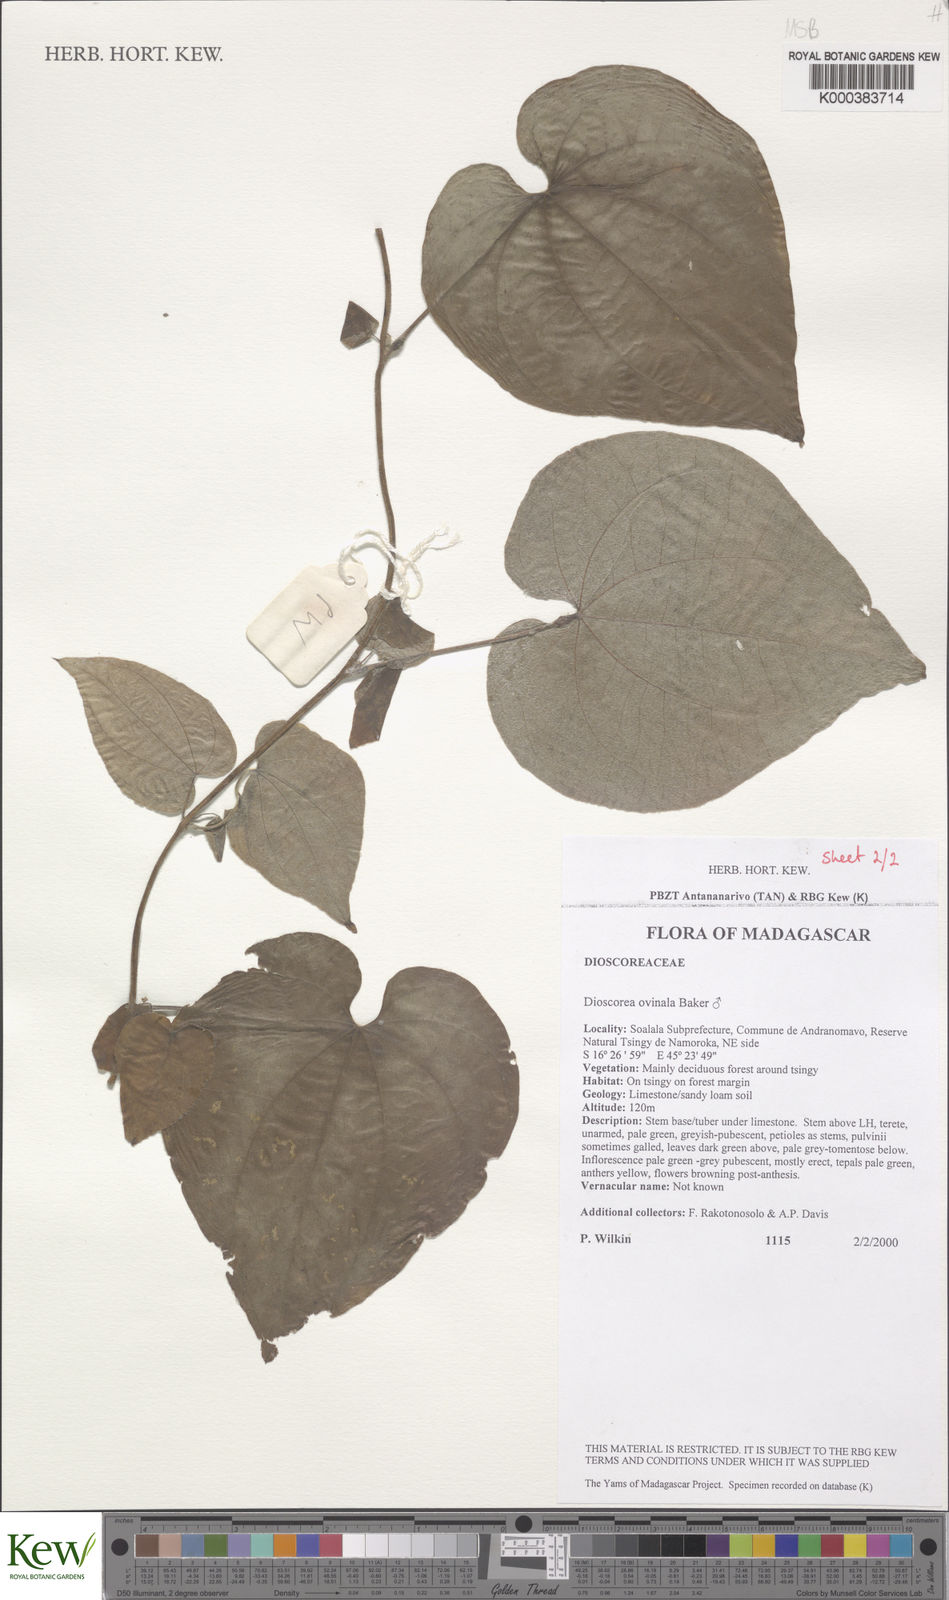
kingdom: Plantae
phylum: Tracheophyta
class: Liliopsida
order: Dioscoreales
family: Dioscoreaceae
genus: Dioscorea
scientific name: Dioscorea ovinala
